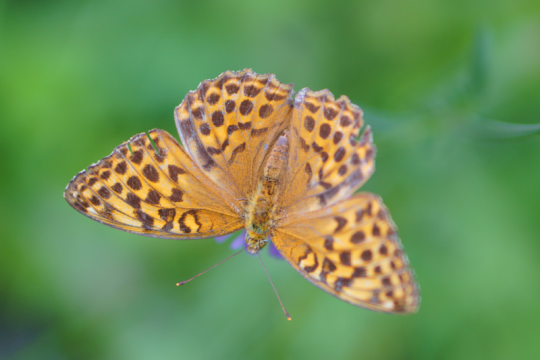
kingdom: Animalia
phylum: Arthropoda
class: Insecta
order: Lepidoptera
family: Nymphalidae
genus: Argynnis
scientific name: Argynnis paphia
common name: Silver-washed Fritillary
